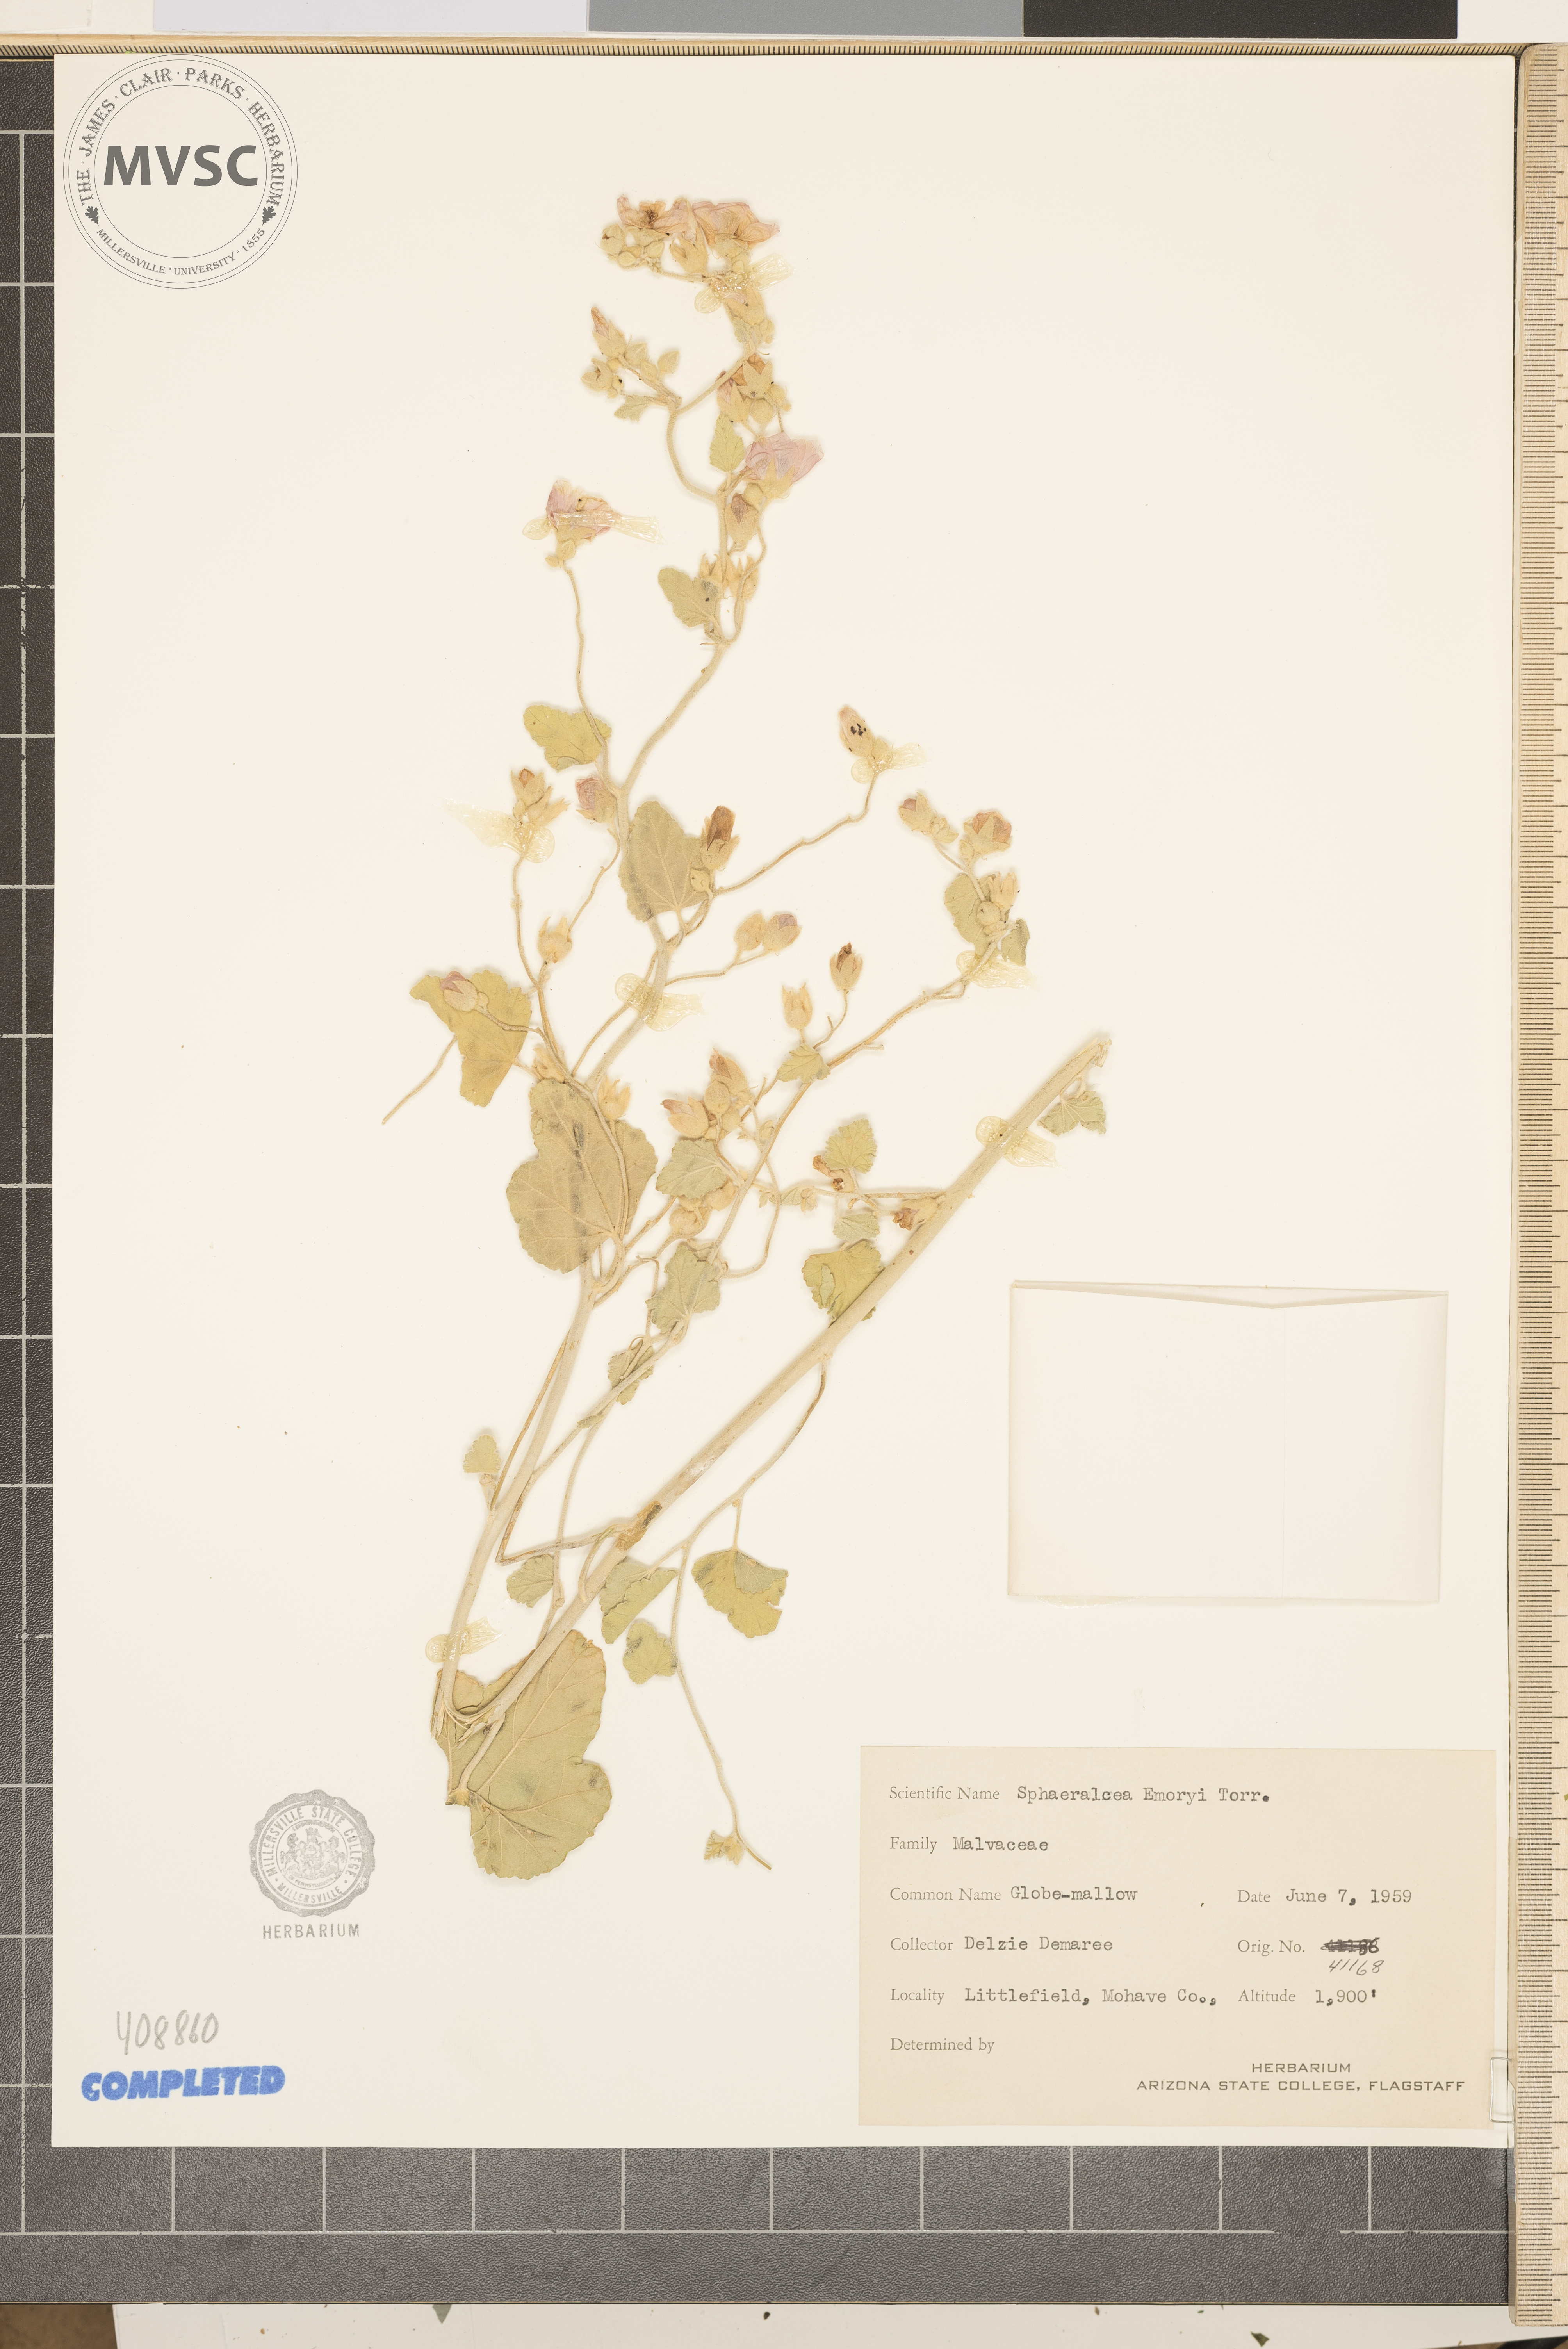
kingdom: Plantae
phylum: Tracheophyta
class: Magnoliopsida
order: Malvales
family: Malvaceae
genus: Sphaeralcea
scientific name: Sphaeralcea emoryi
